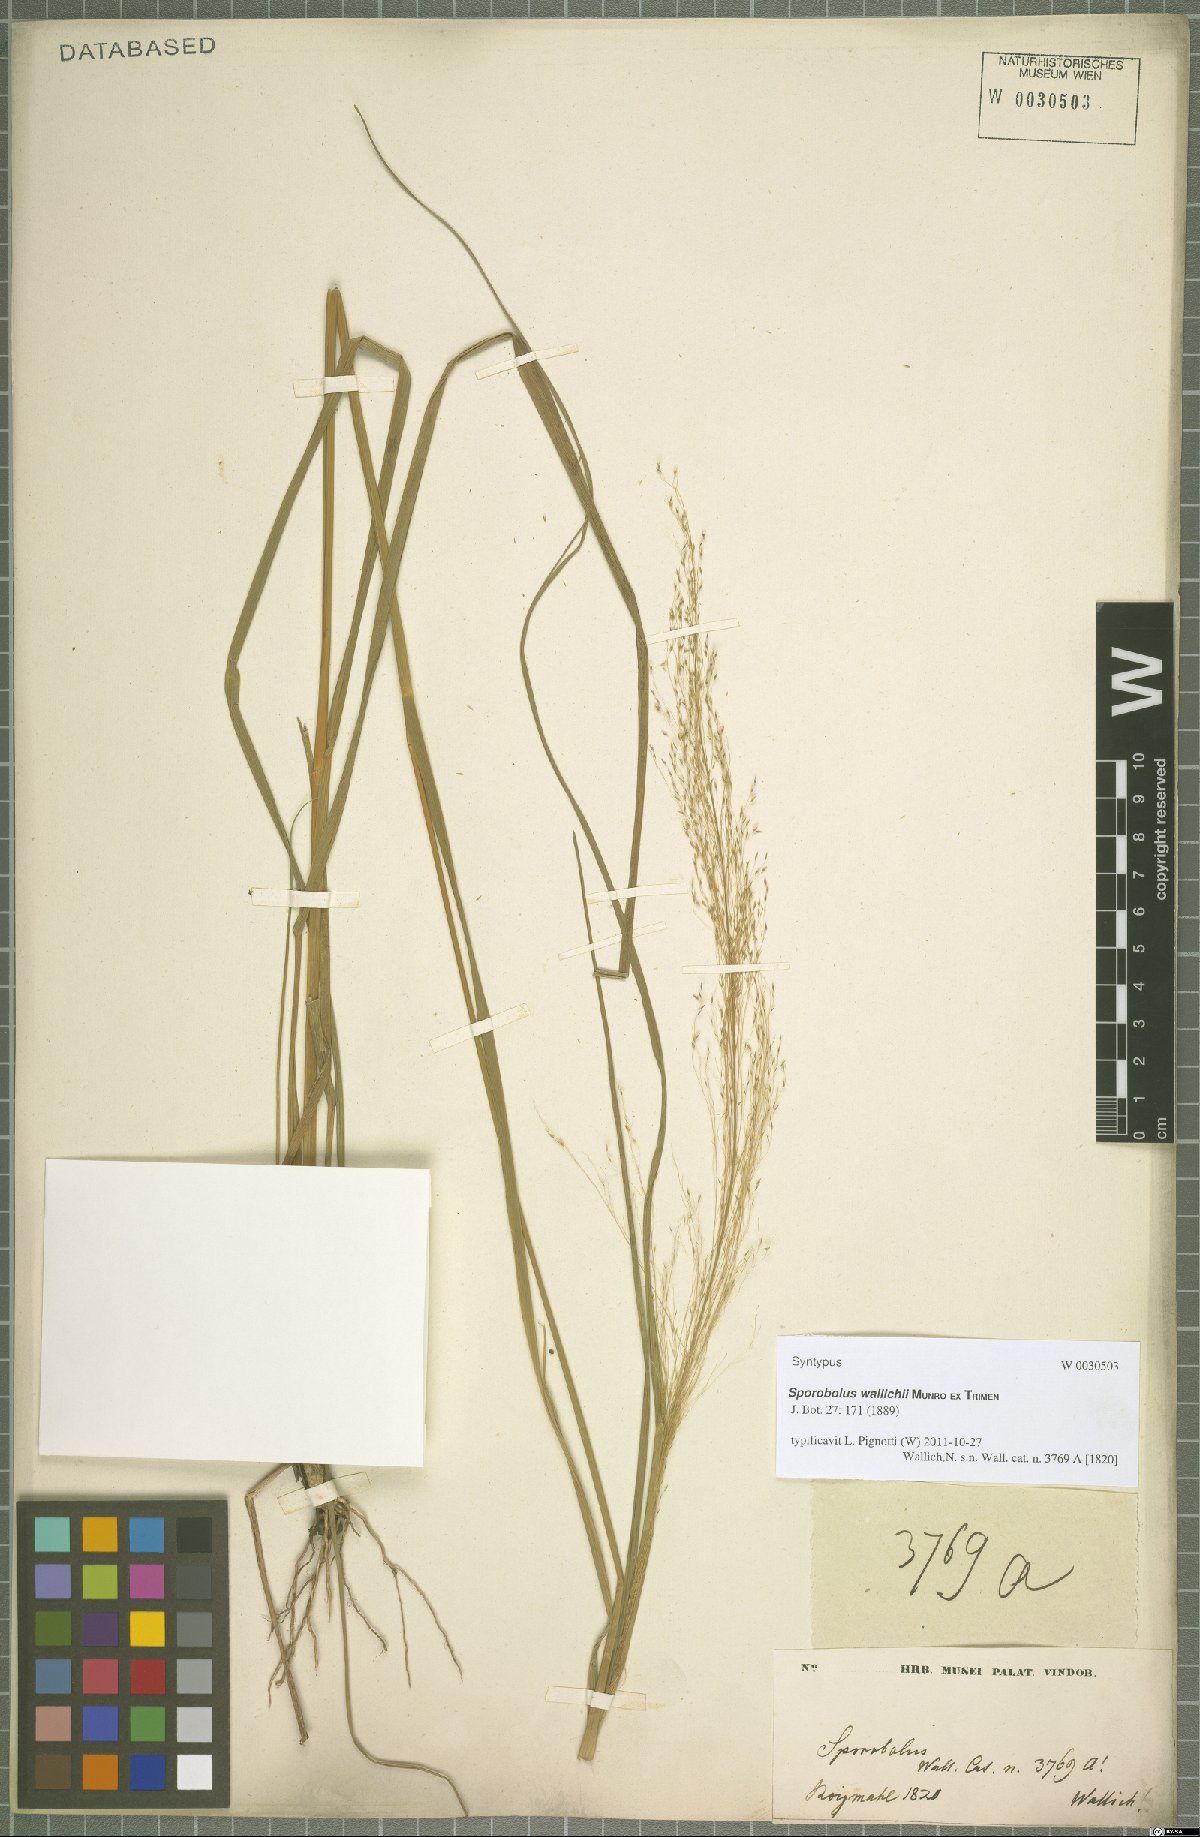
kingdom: Plantae
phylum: Tracheophyta
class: Liliopsida
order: Poales
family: Poaceae
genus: Sporobolus
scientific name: Sporobolus wallichii
